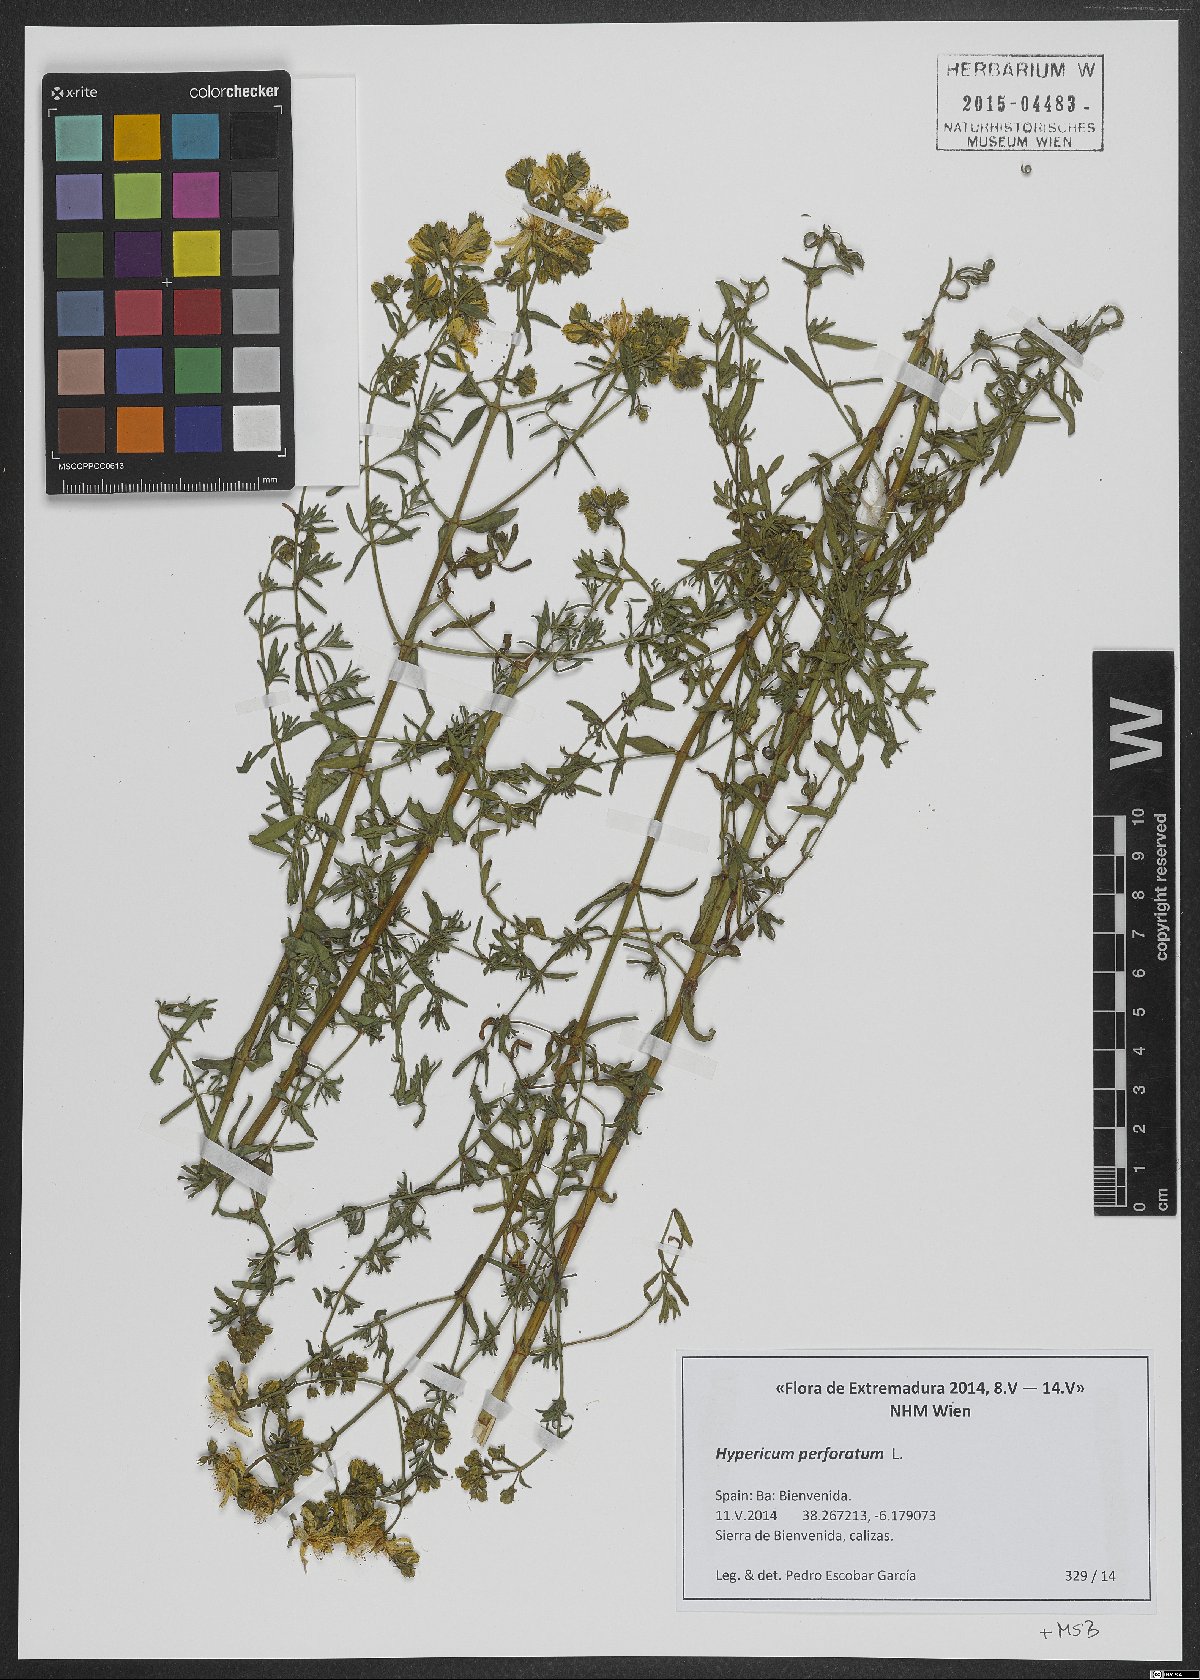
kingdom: Plantae
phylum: Tracheophyta
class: Magnoliopsida
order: Malpighiales
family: Hypericaceae
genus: Hypericum
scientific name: Hypericum perforatum
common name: Common st. johnswort
